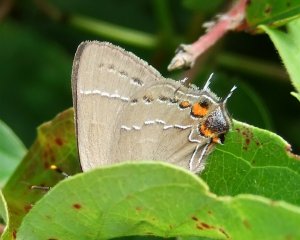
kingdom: Animalia
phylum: Arthropoda
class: Insecta
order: Lepidoptera
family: Lycaenidae
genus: Fixsenia
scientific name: Fixsenia favonius
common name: Oak Hairstreak
